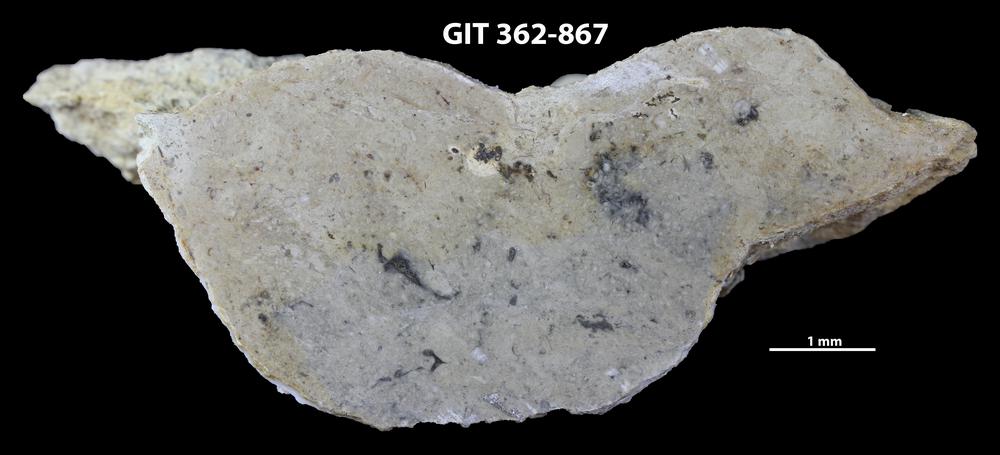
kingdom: Animalia
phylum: Cnidaria
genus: Bergaueria
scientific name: Bergaueria
